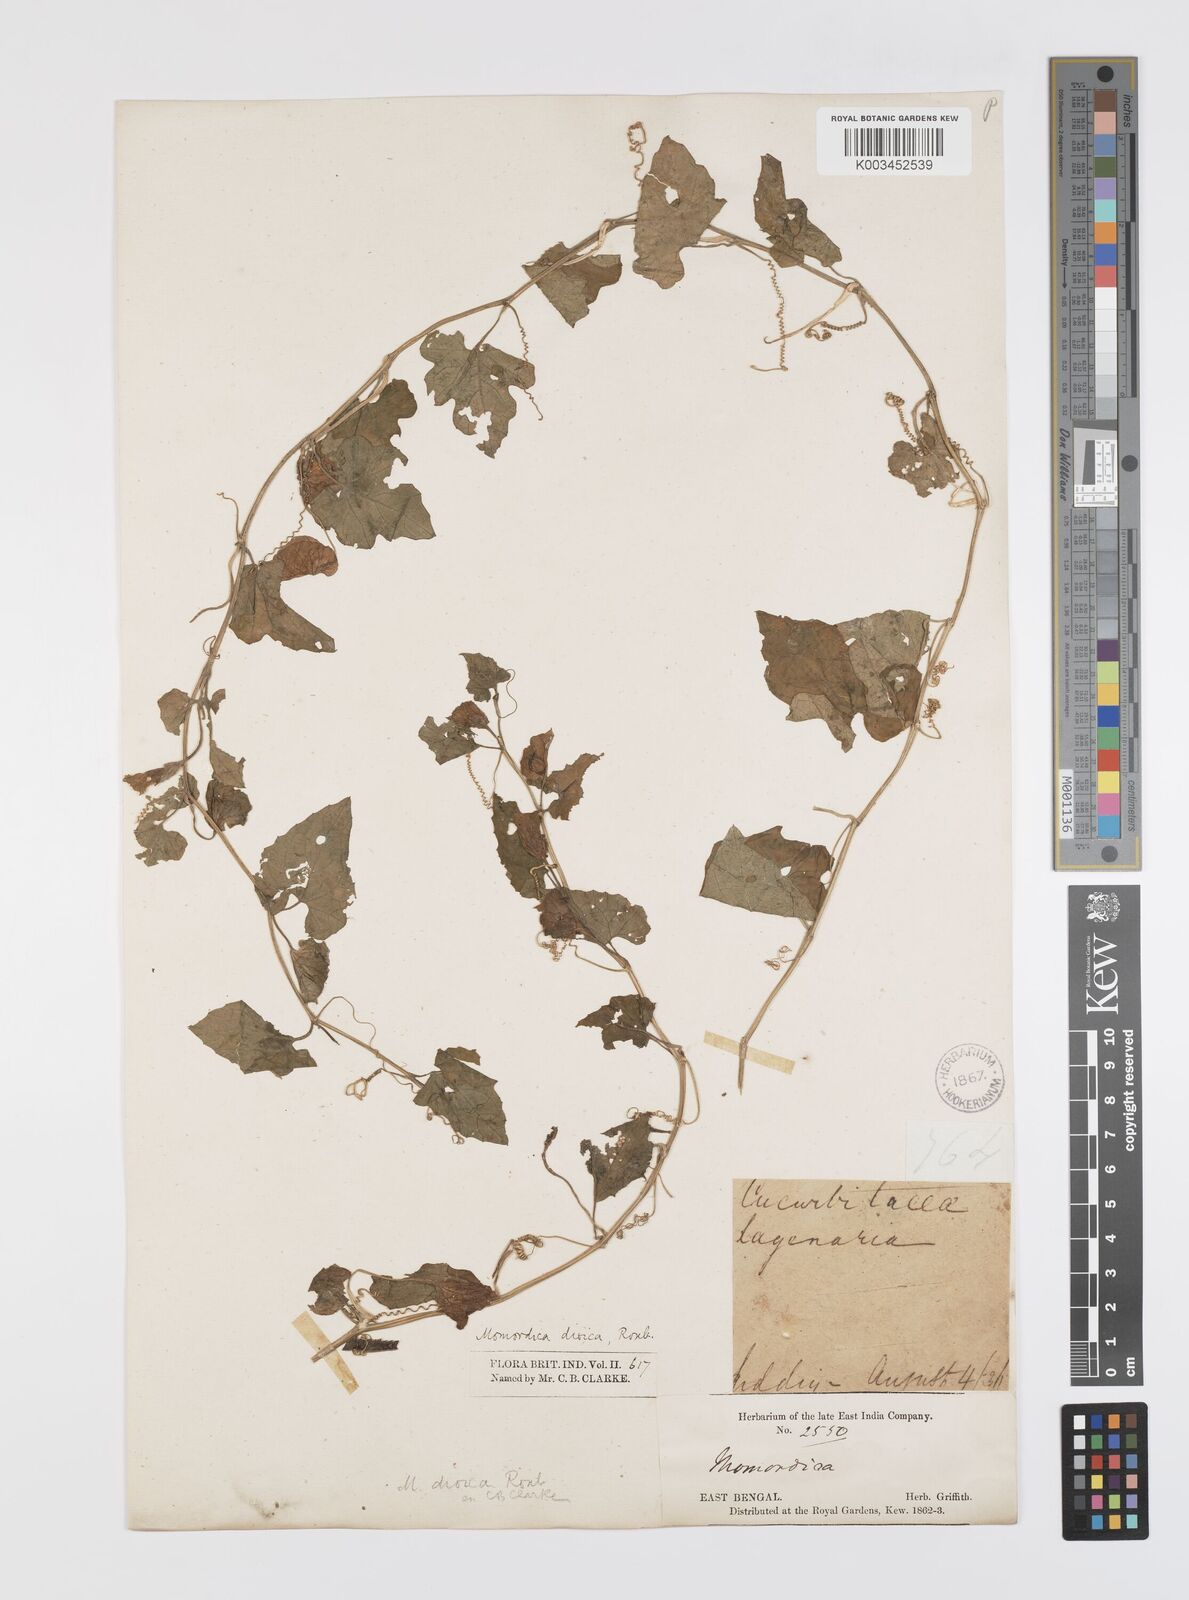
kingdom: Plantae
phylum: Tracheophyta
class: Magnoliopsida
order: Cucurbitales
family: Cucurbitaceae
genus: Momordica
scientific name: Momordica dioica
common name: Spine gourd
